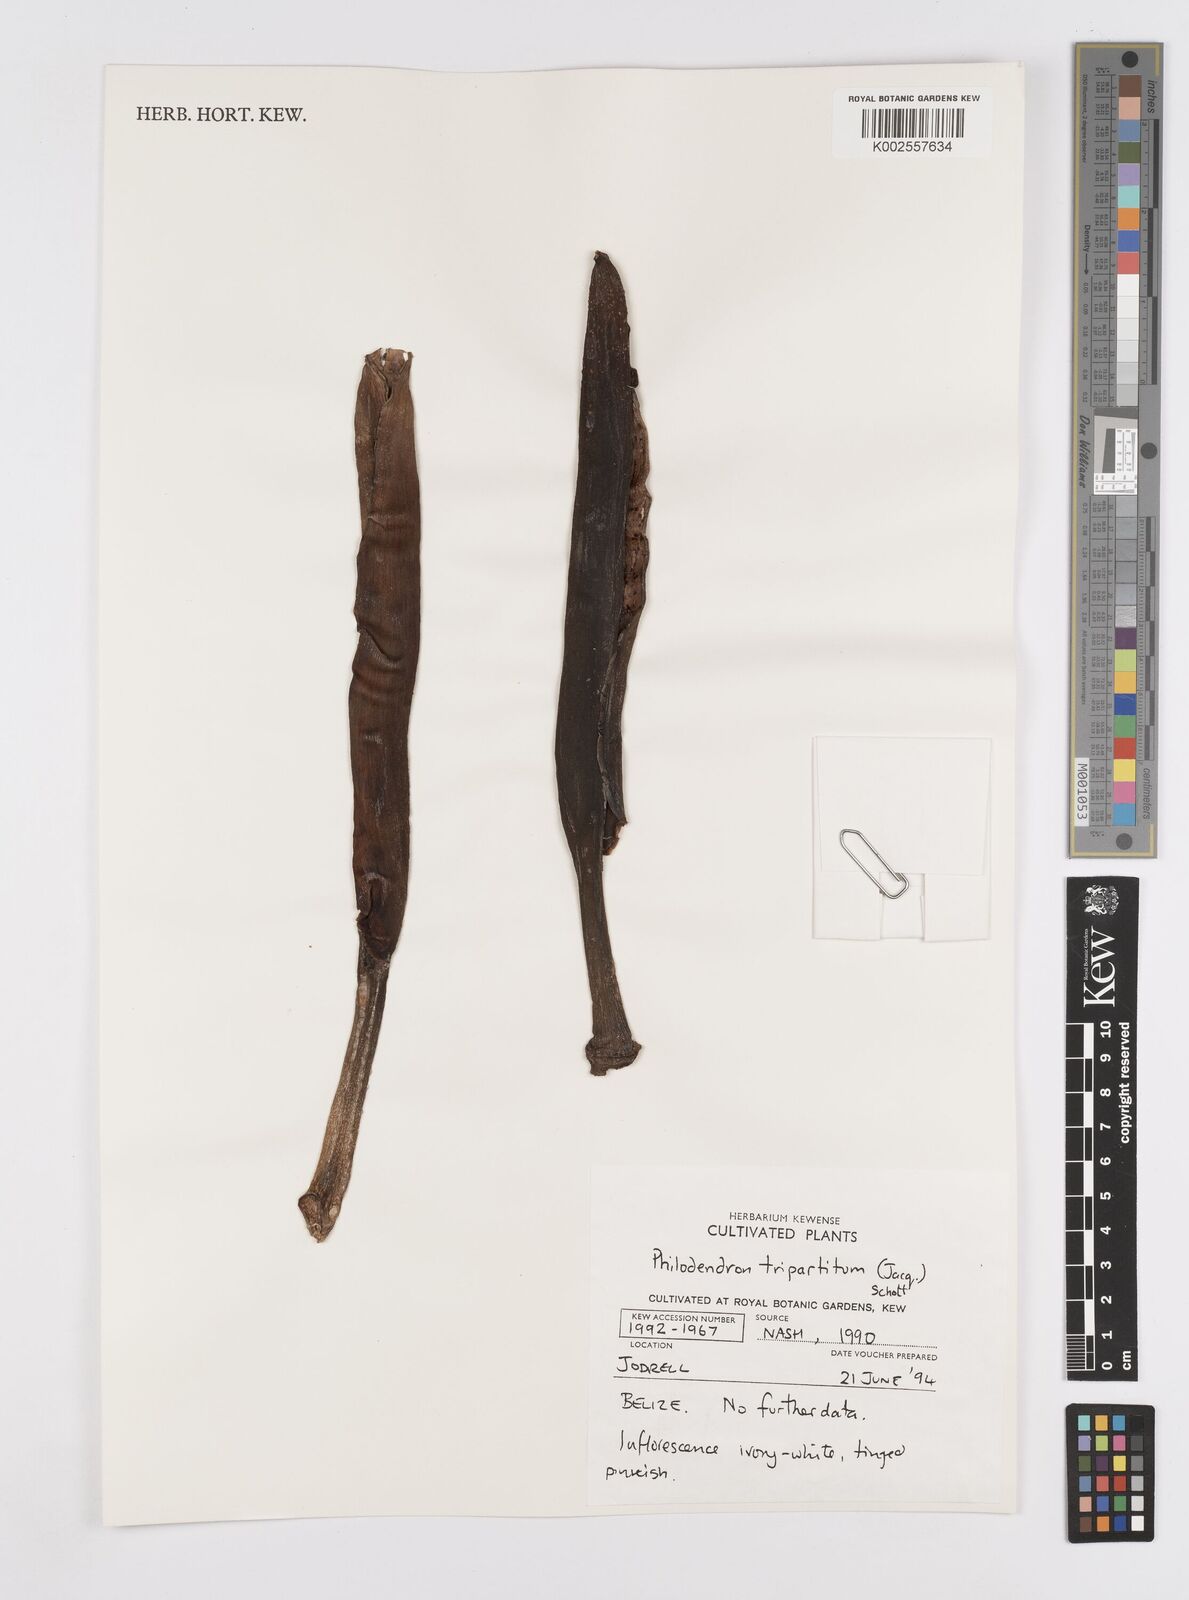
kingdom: Plantae
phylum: Tracheophyta
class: Liliopsida
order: Alismatales
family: Araceae
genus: Philodendron
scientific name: Philodendron tripartitum
